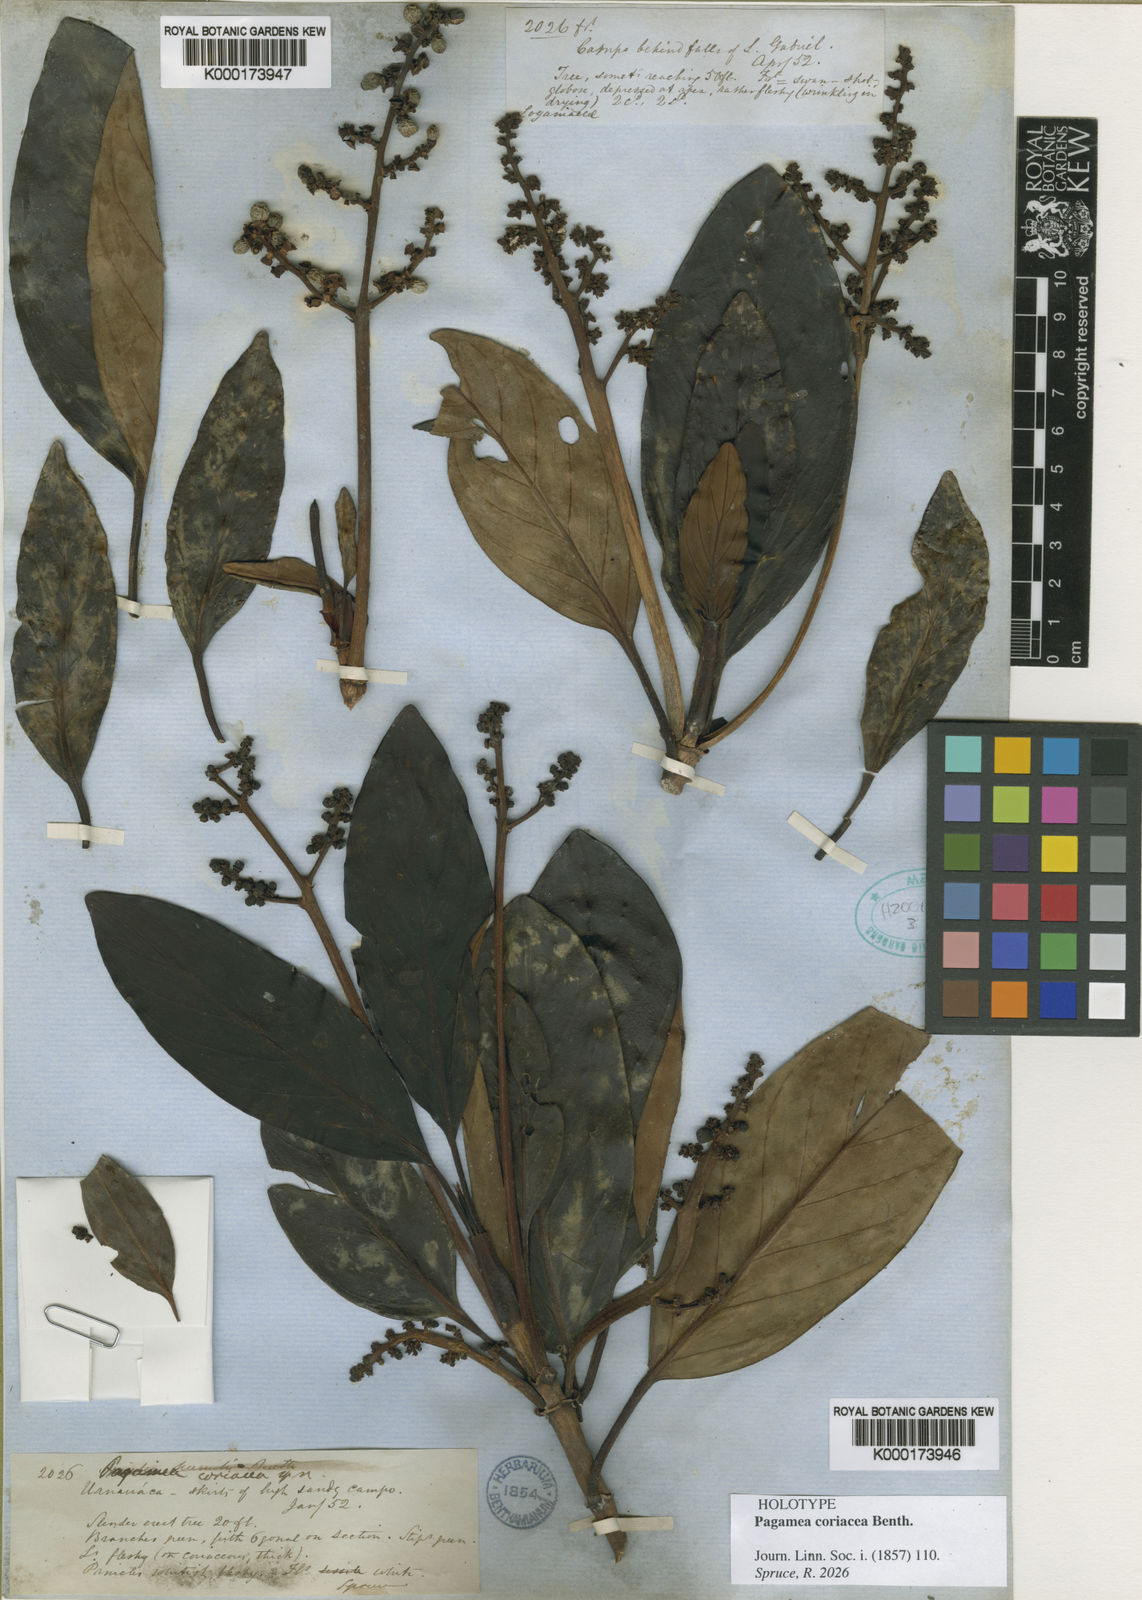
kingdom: Plantae
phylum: Tracheophyta
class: Magnoliopsida
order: Gentianales
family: Rubiaceae
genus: Pagamea
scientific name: Pagamea coriacea
